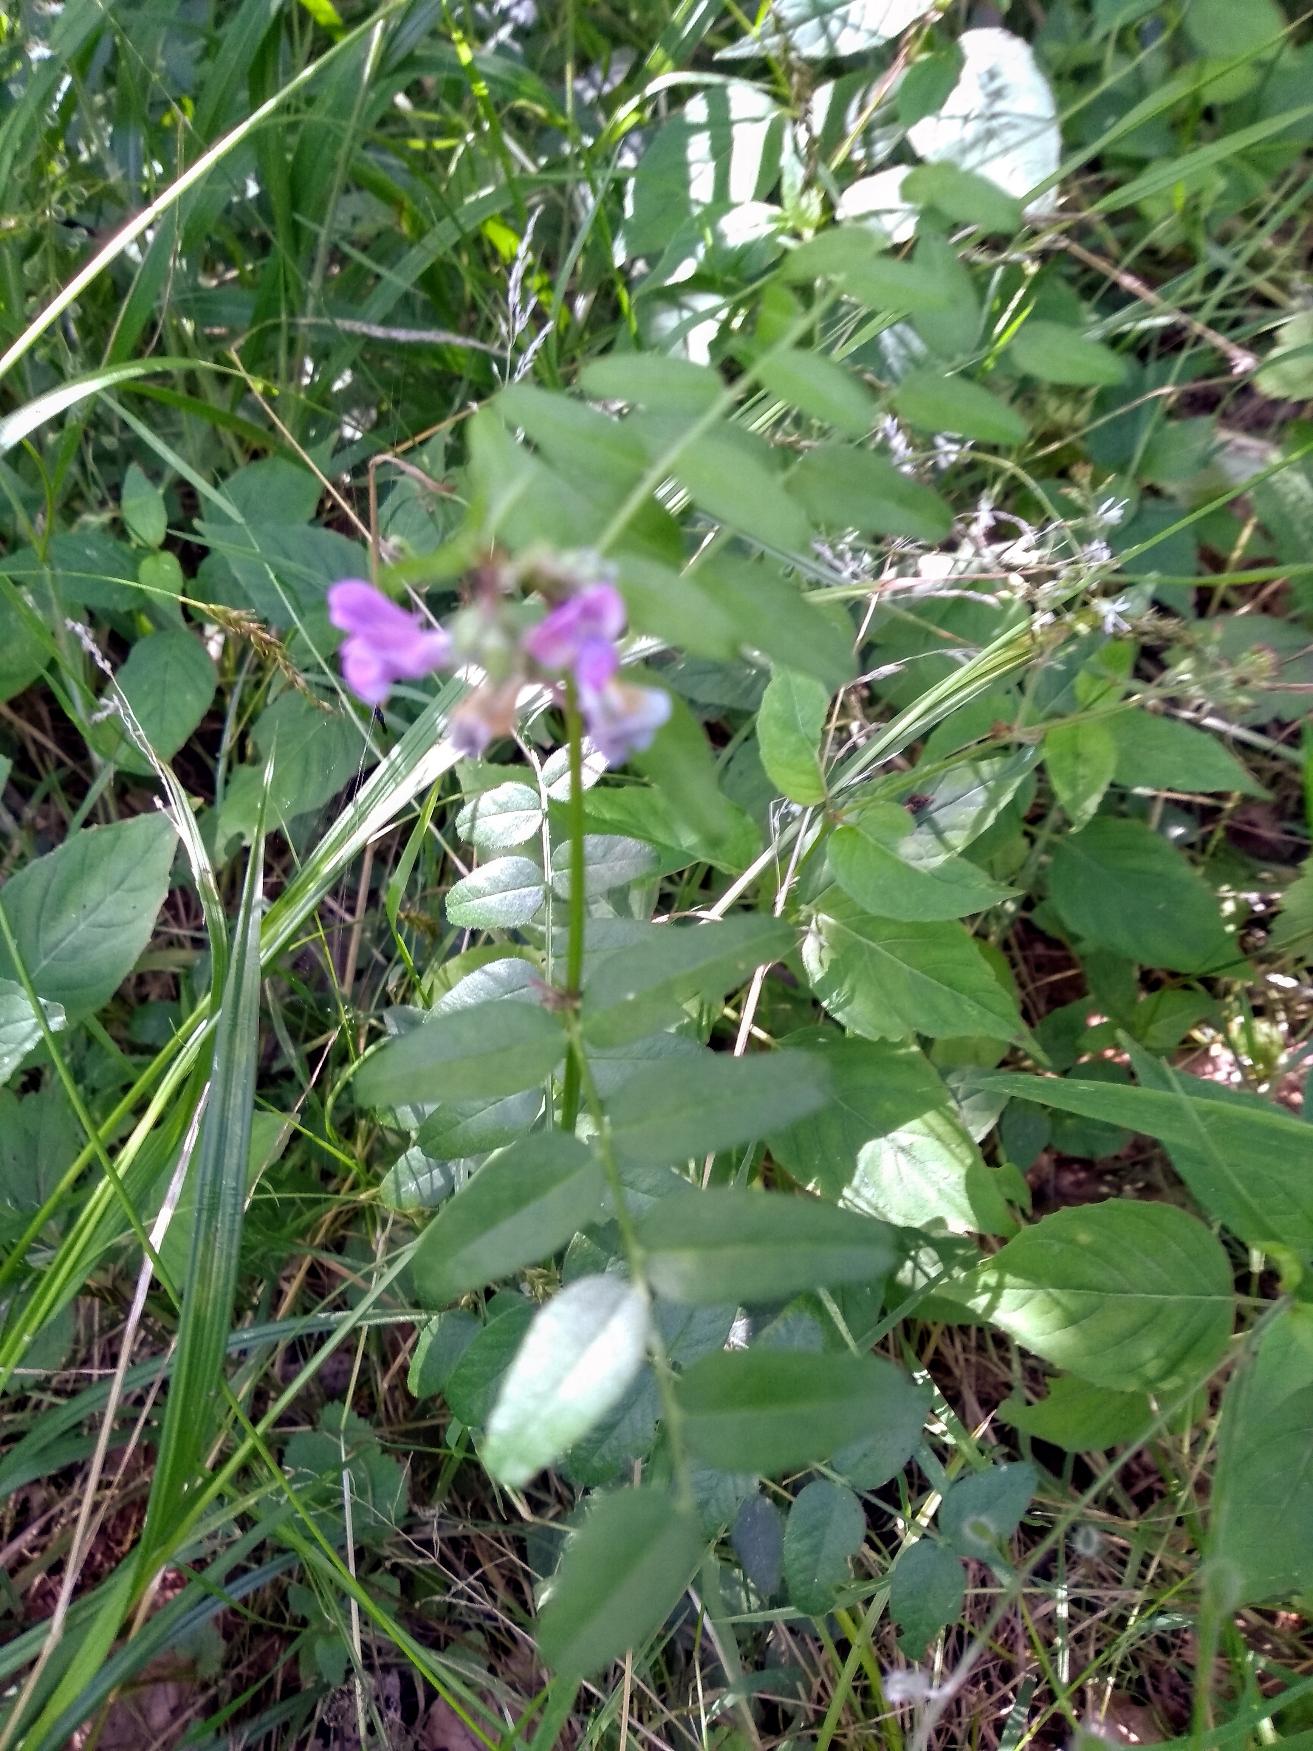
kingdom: Plantae
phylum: Tracheophyta
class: Magnoliopsida
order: Fabales
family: Fabaceae
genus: Vicia
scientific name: Vicia sepium
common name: Gærde-vikke
